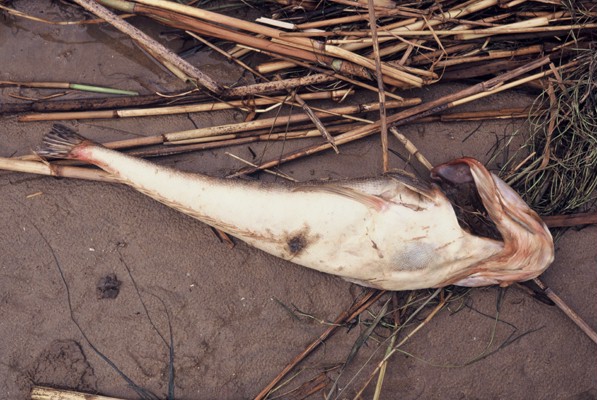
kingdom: Animalia
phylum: Chordata
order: Scorpaeniformes
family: Platycephalidae
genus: Platycephalus
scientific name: Platycephalus indicus
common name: Bartail flathead
